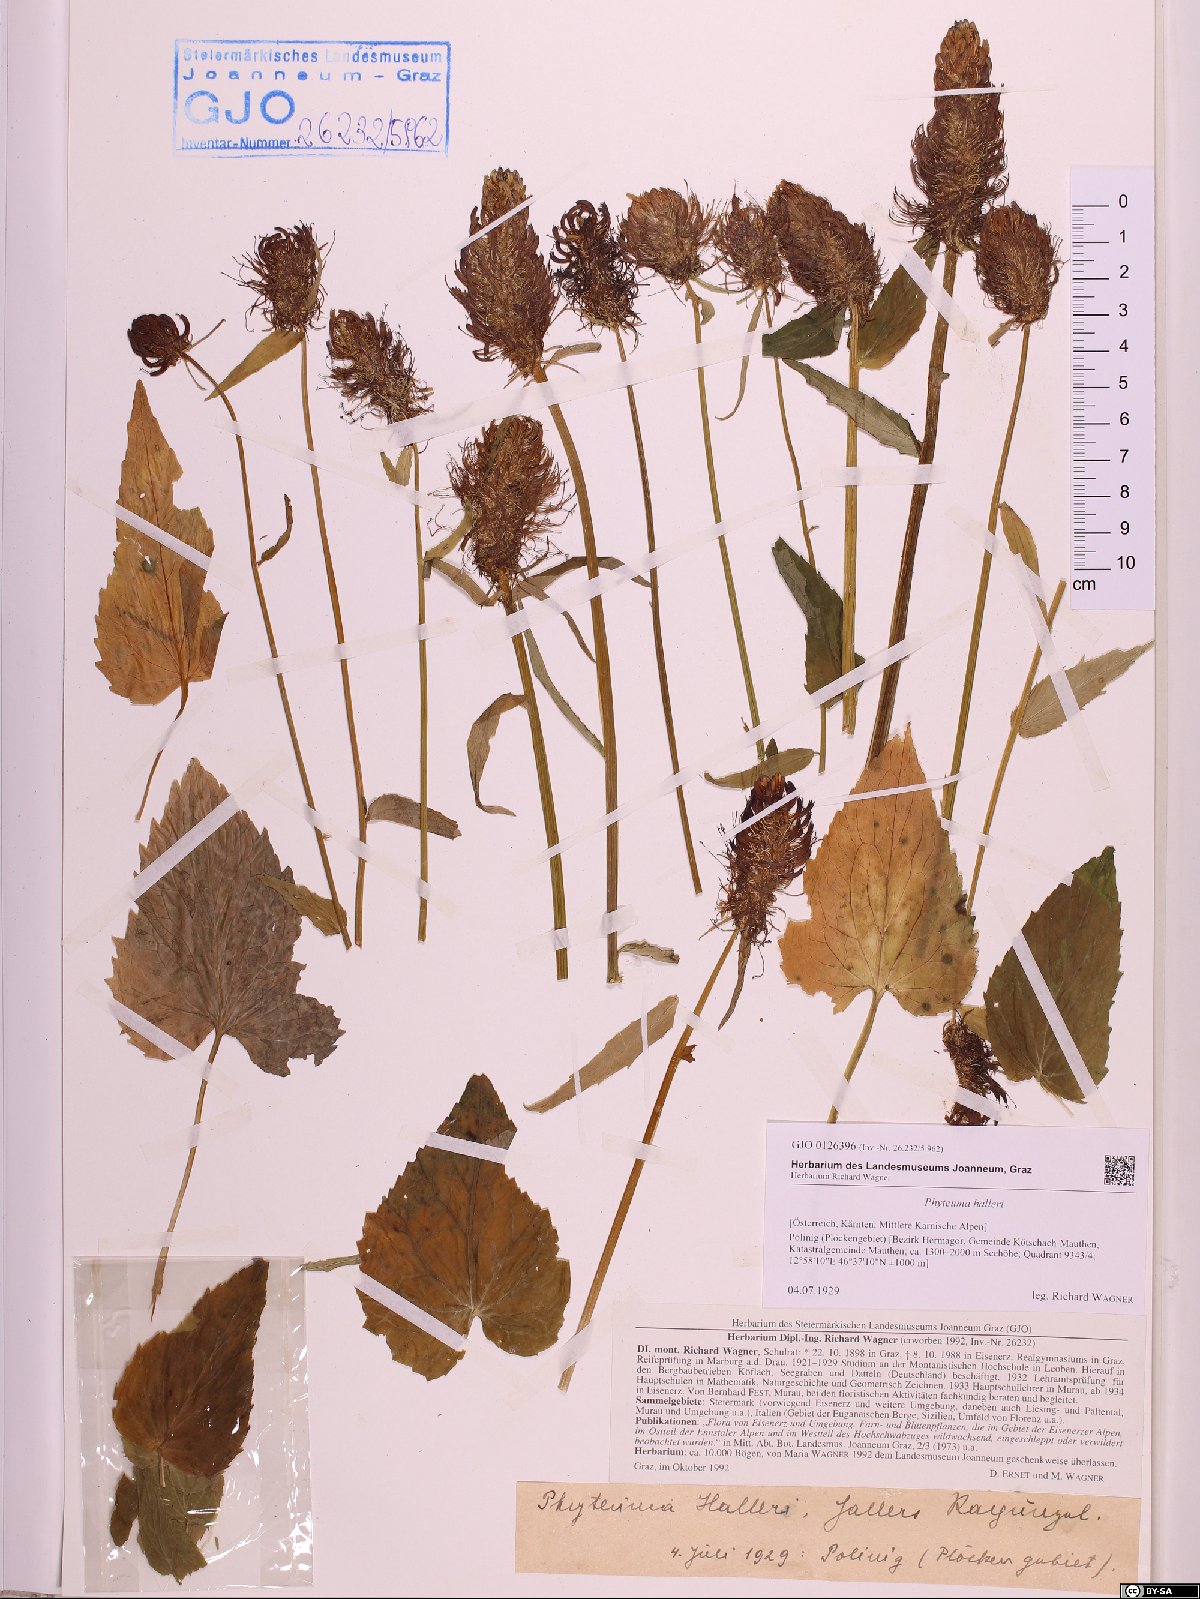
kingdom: Plantae
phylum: Tracheophyta
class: Magnoliopsida
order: Asterales
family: Campanulaceae
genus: Phyteuma
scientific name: Phyteuma ovatum
